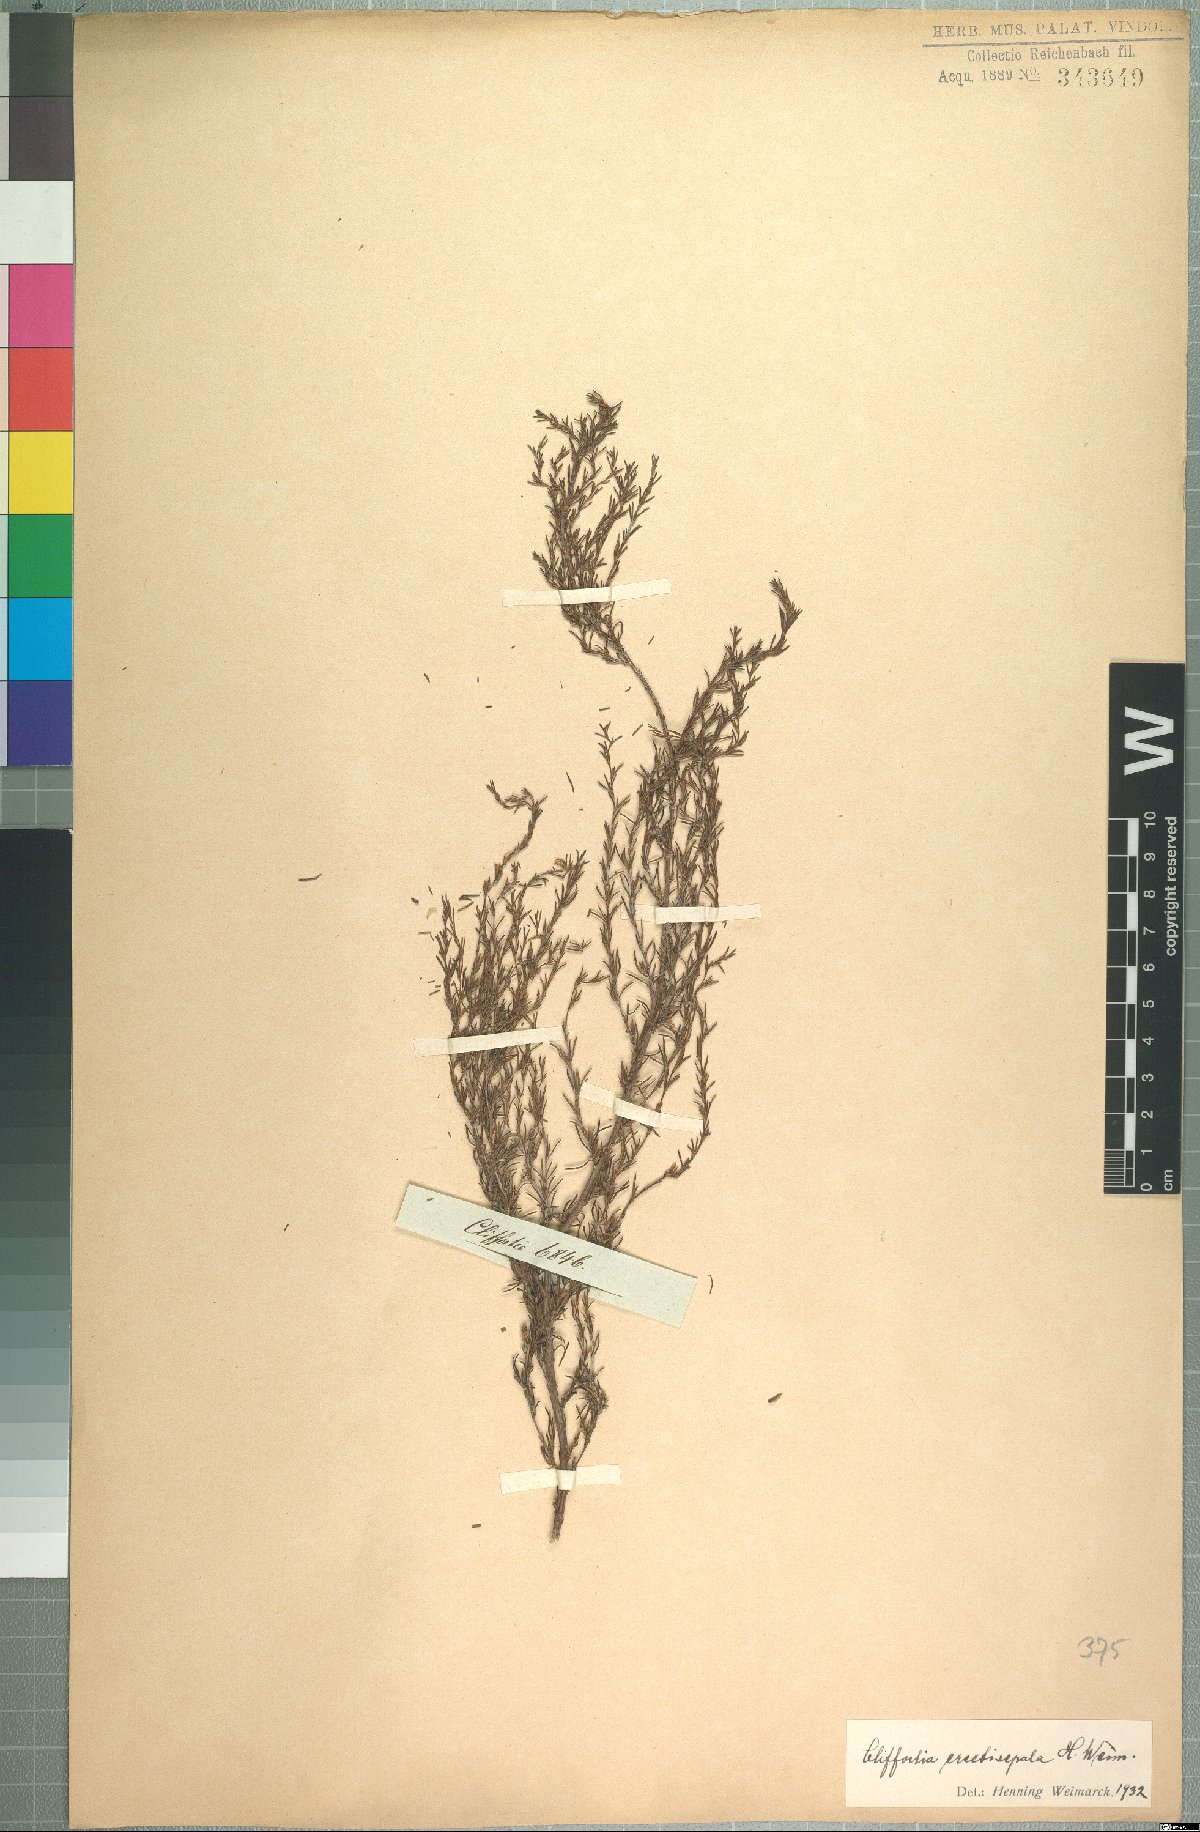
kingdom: Plantae
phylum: Tracheophyta
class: Magnoliopsida
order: Rosales
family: Rosaceae
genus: Cliffortia
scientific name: Cliffortia erectisepala
